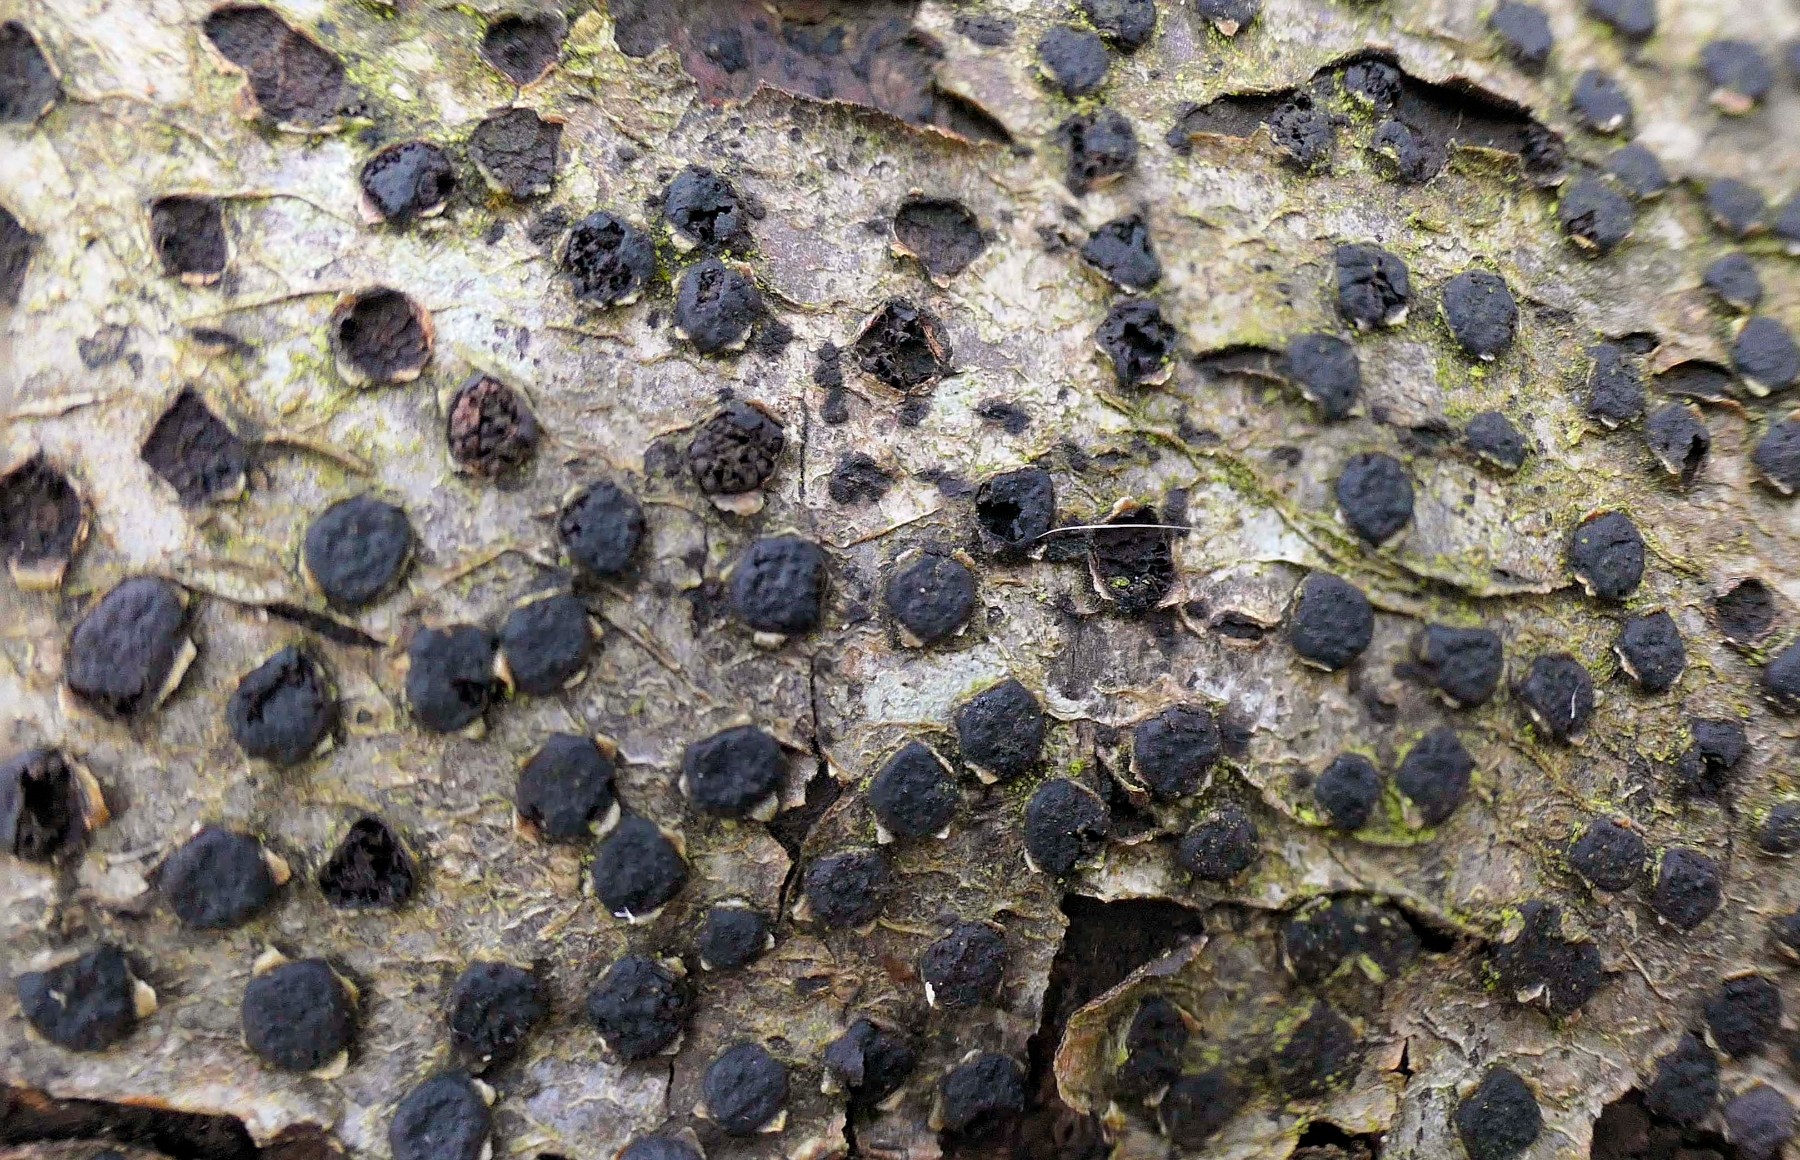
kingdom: Fungi
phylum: Ascomycota
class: Sordariomycetes
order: Xylariales
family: Diatrypaceae
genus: Diatrype
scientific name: Diatrype disciformis
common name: kant-kulskorpe
